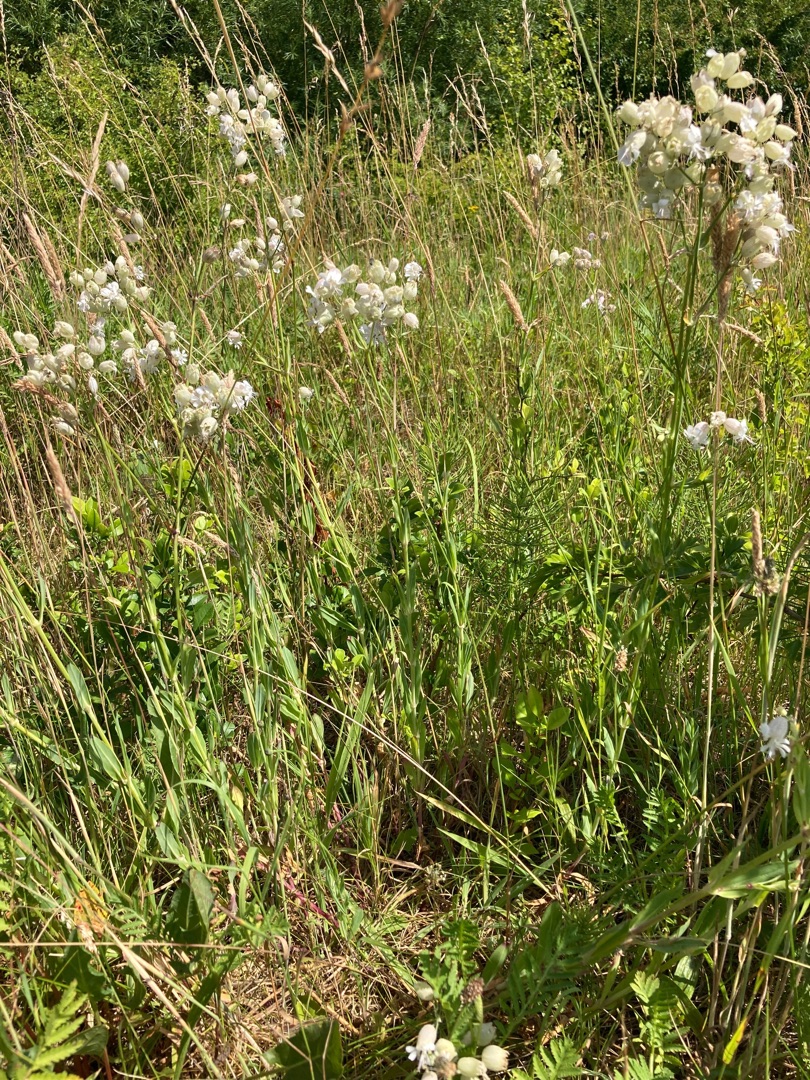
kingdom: Plantae
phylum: Tracheophyta
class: Magnoliopsida
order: Caryophyllales
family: Caryophyllaceae
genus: Silene
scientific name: Silene vulgaris
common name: Blæresmælde
